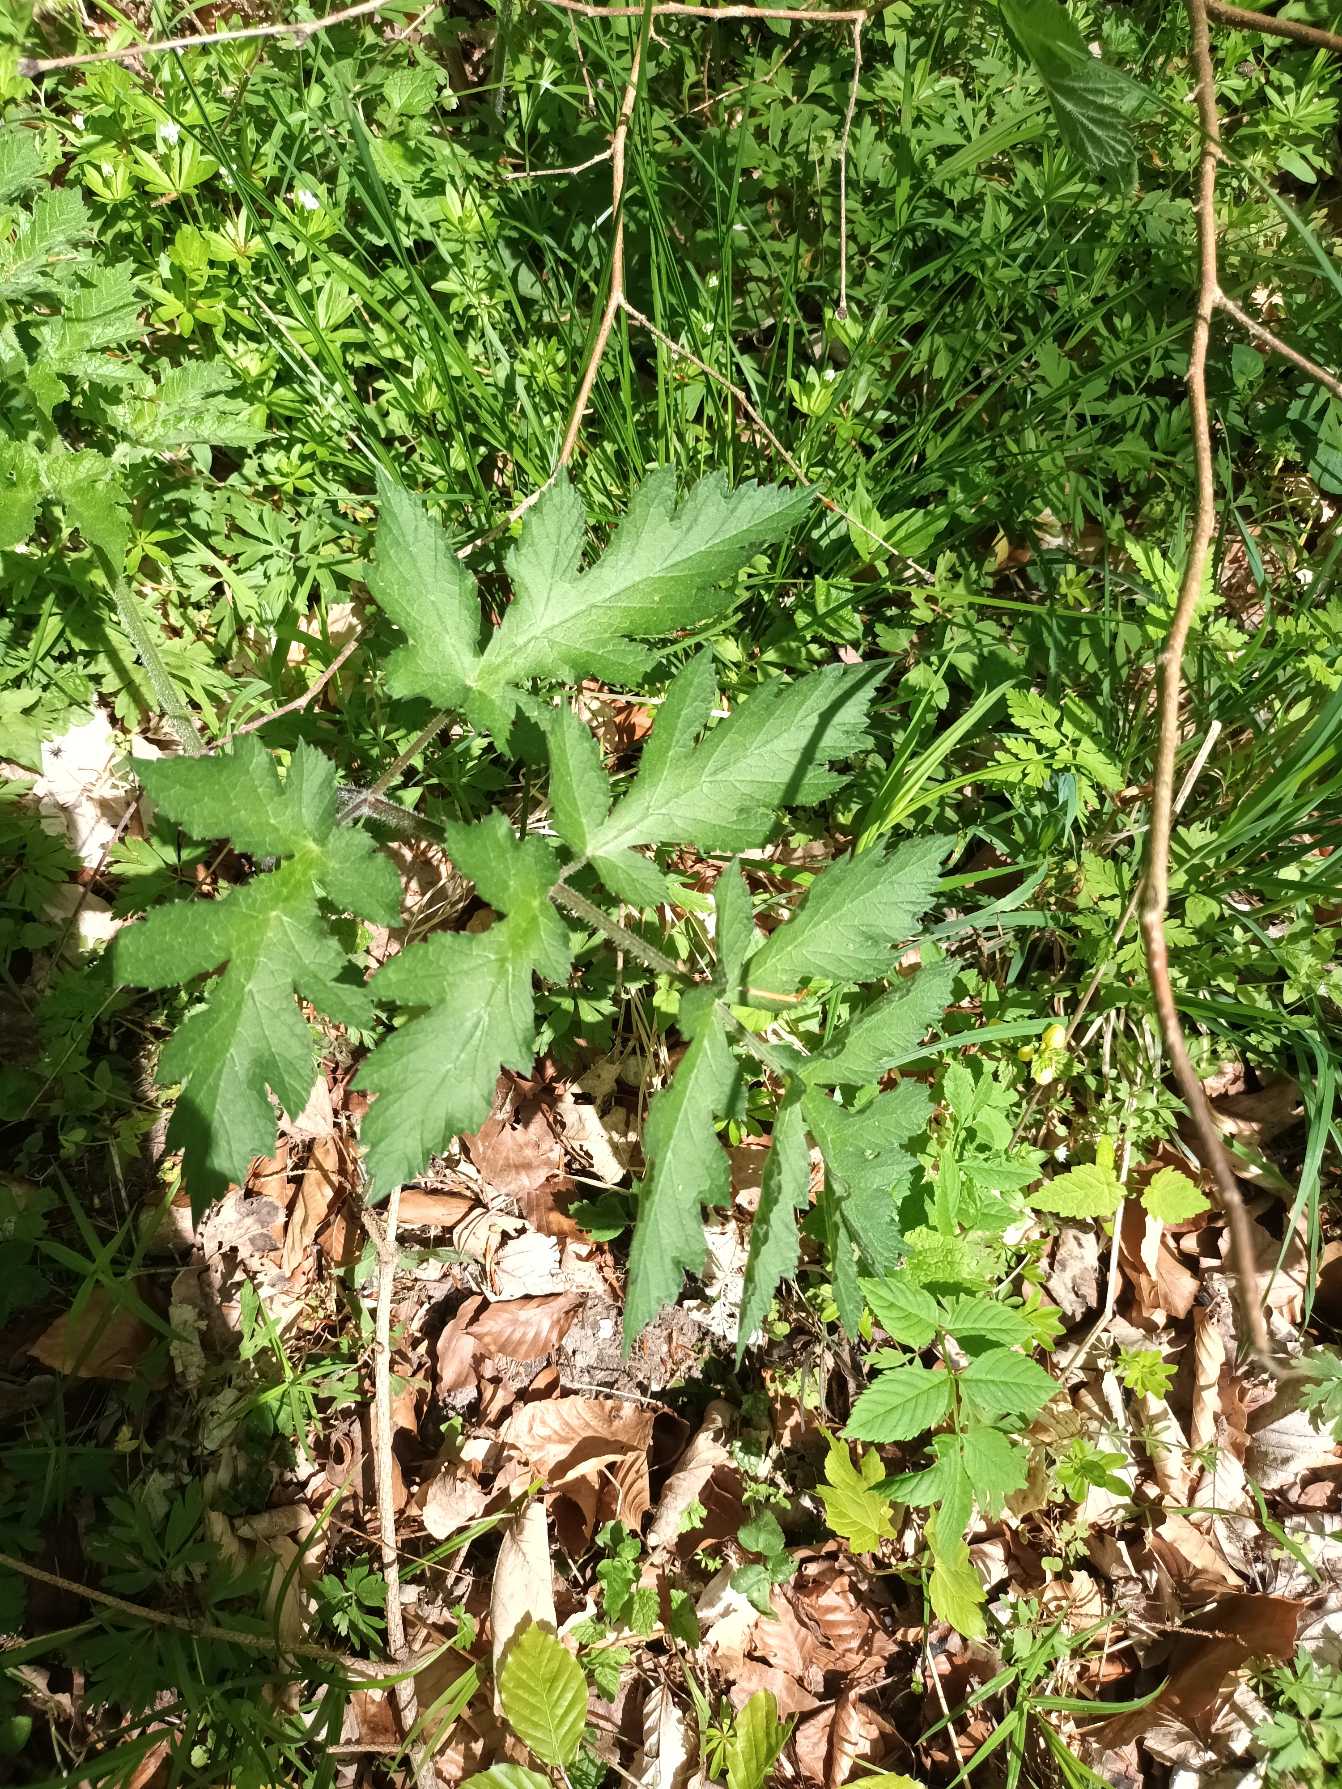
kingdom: Plantae
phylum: Tracheophyta
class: Magnoliopsida
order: Apiales
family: Apiaceae
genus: Heracleum
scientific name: Heracleum sphondylium
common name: Almindelig bjørneklo
